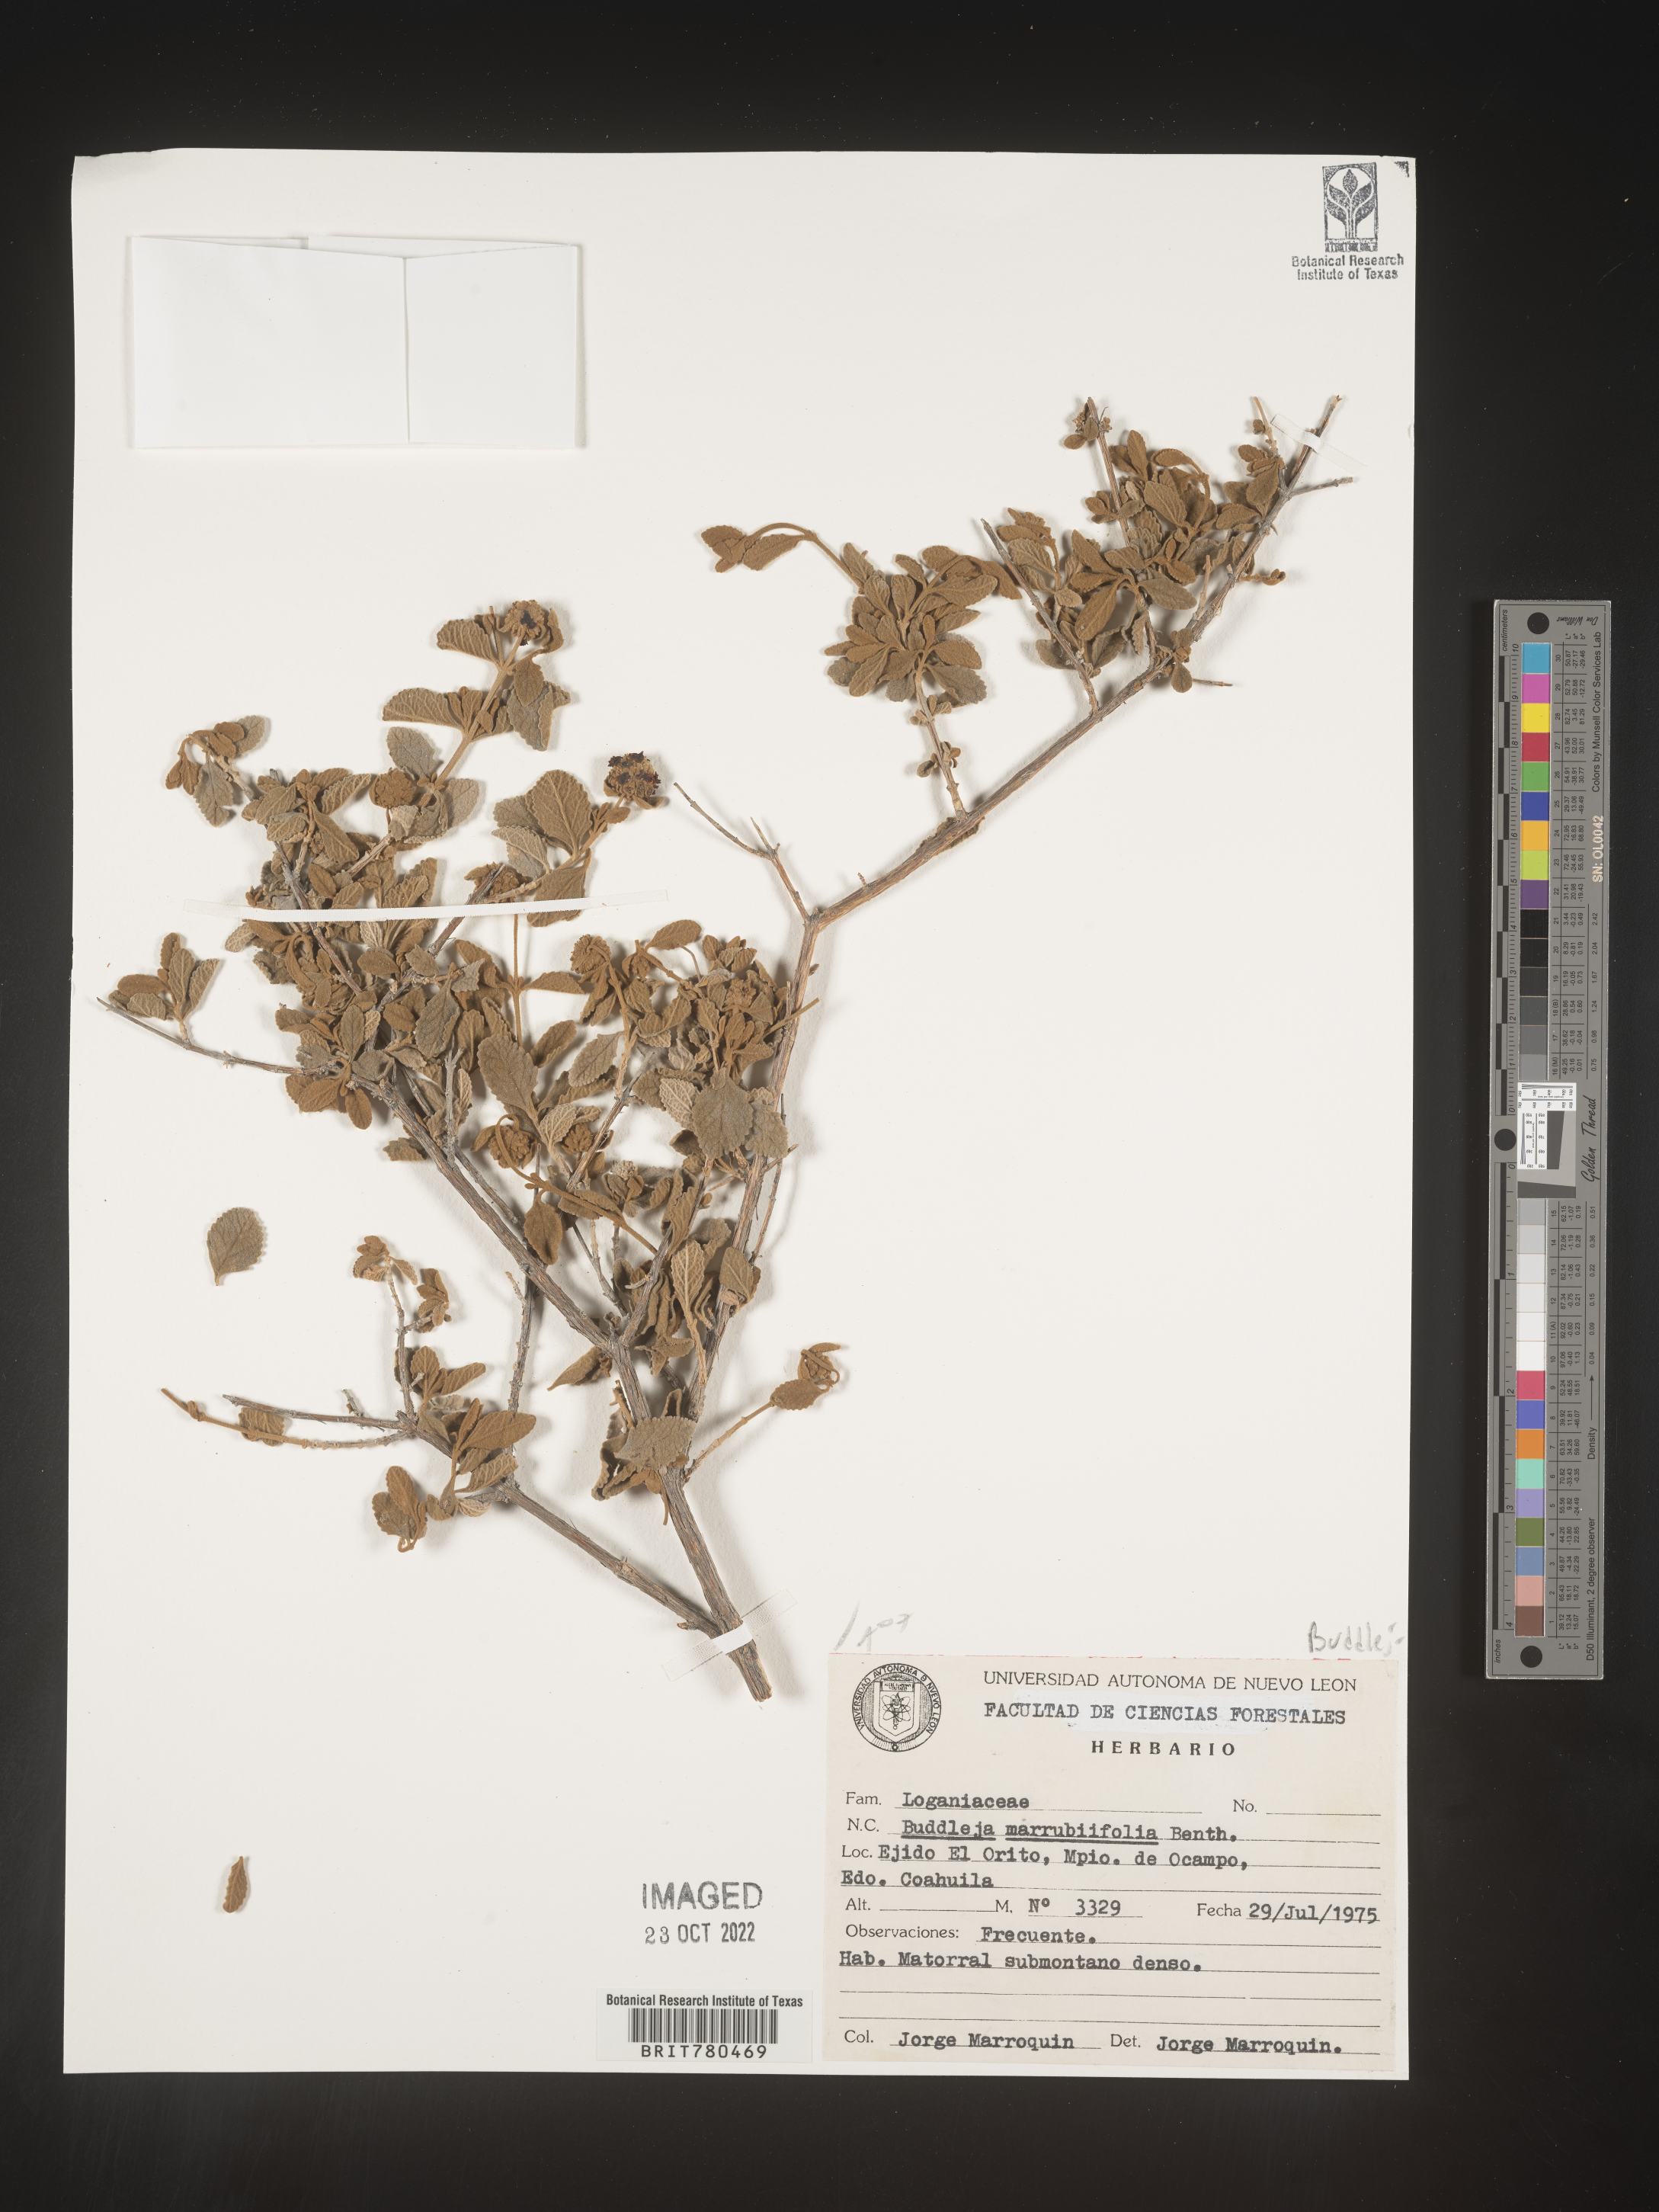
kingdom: Plantae
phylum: Tracheophyta
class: Magnoliopsida
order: Lamiales
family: Scrophulariaceae
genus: Buddleja
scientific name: Buddleja
